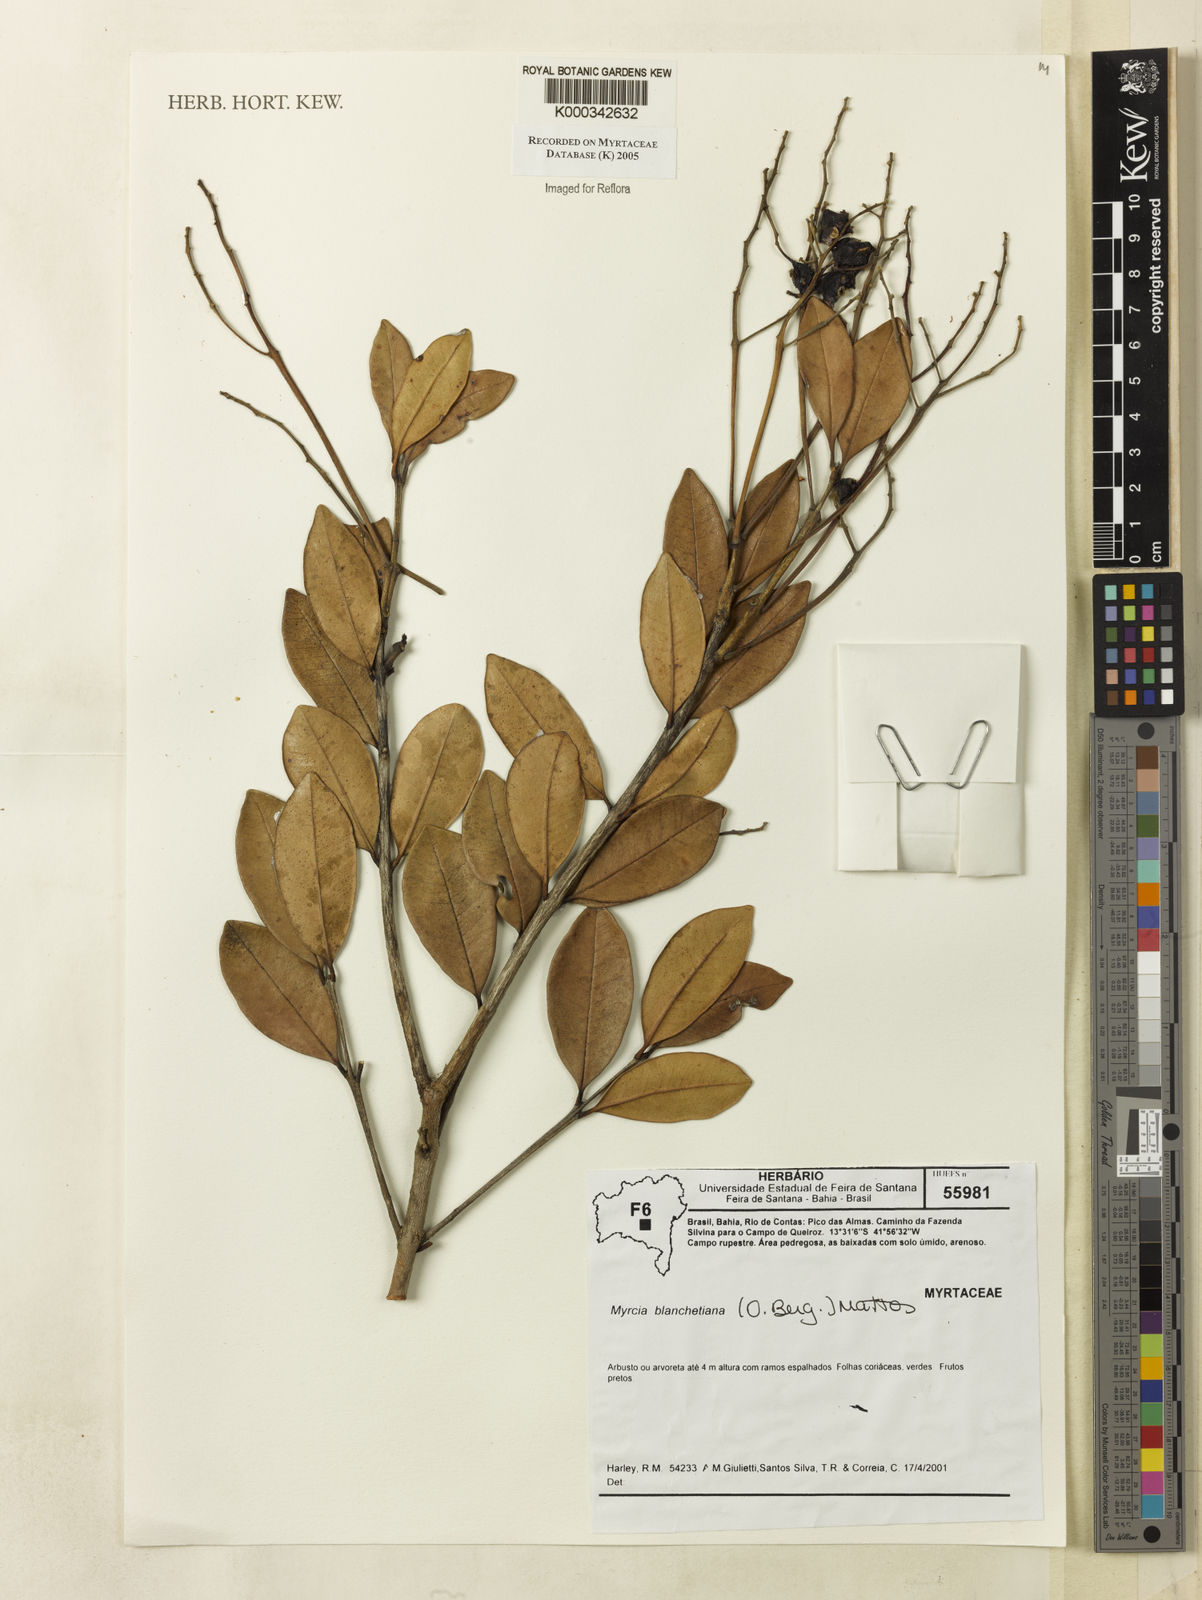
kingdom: Plantae
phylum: Tracheophyta
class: Magnoliopsida
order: Myrtales
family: Myrtaceae
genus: Myrcia
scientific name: Myrcia blanchetiana
